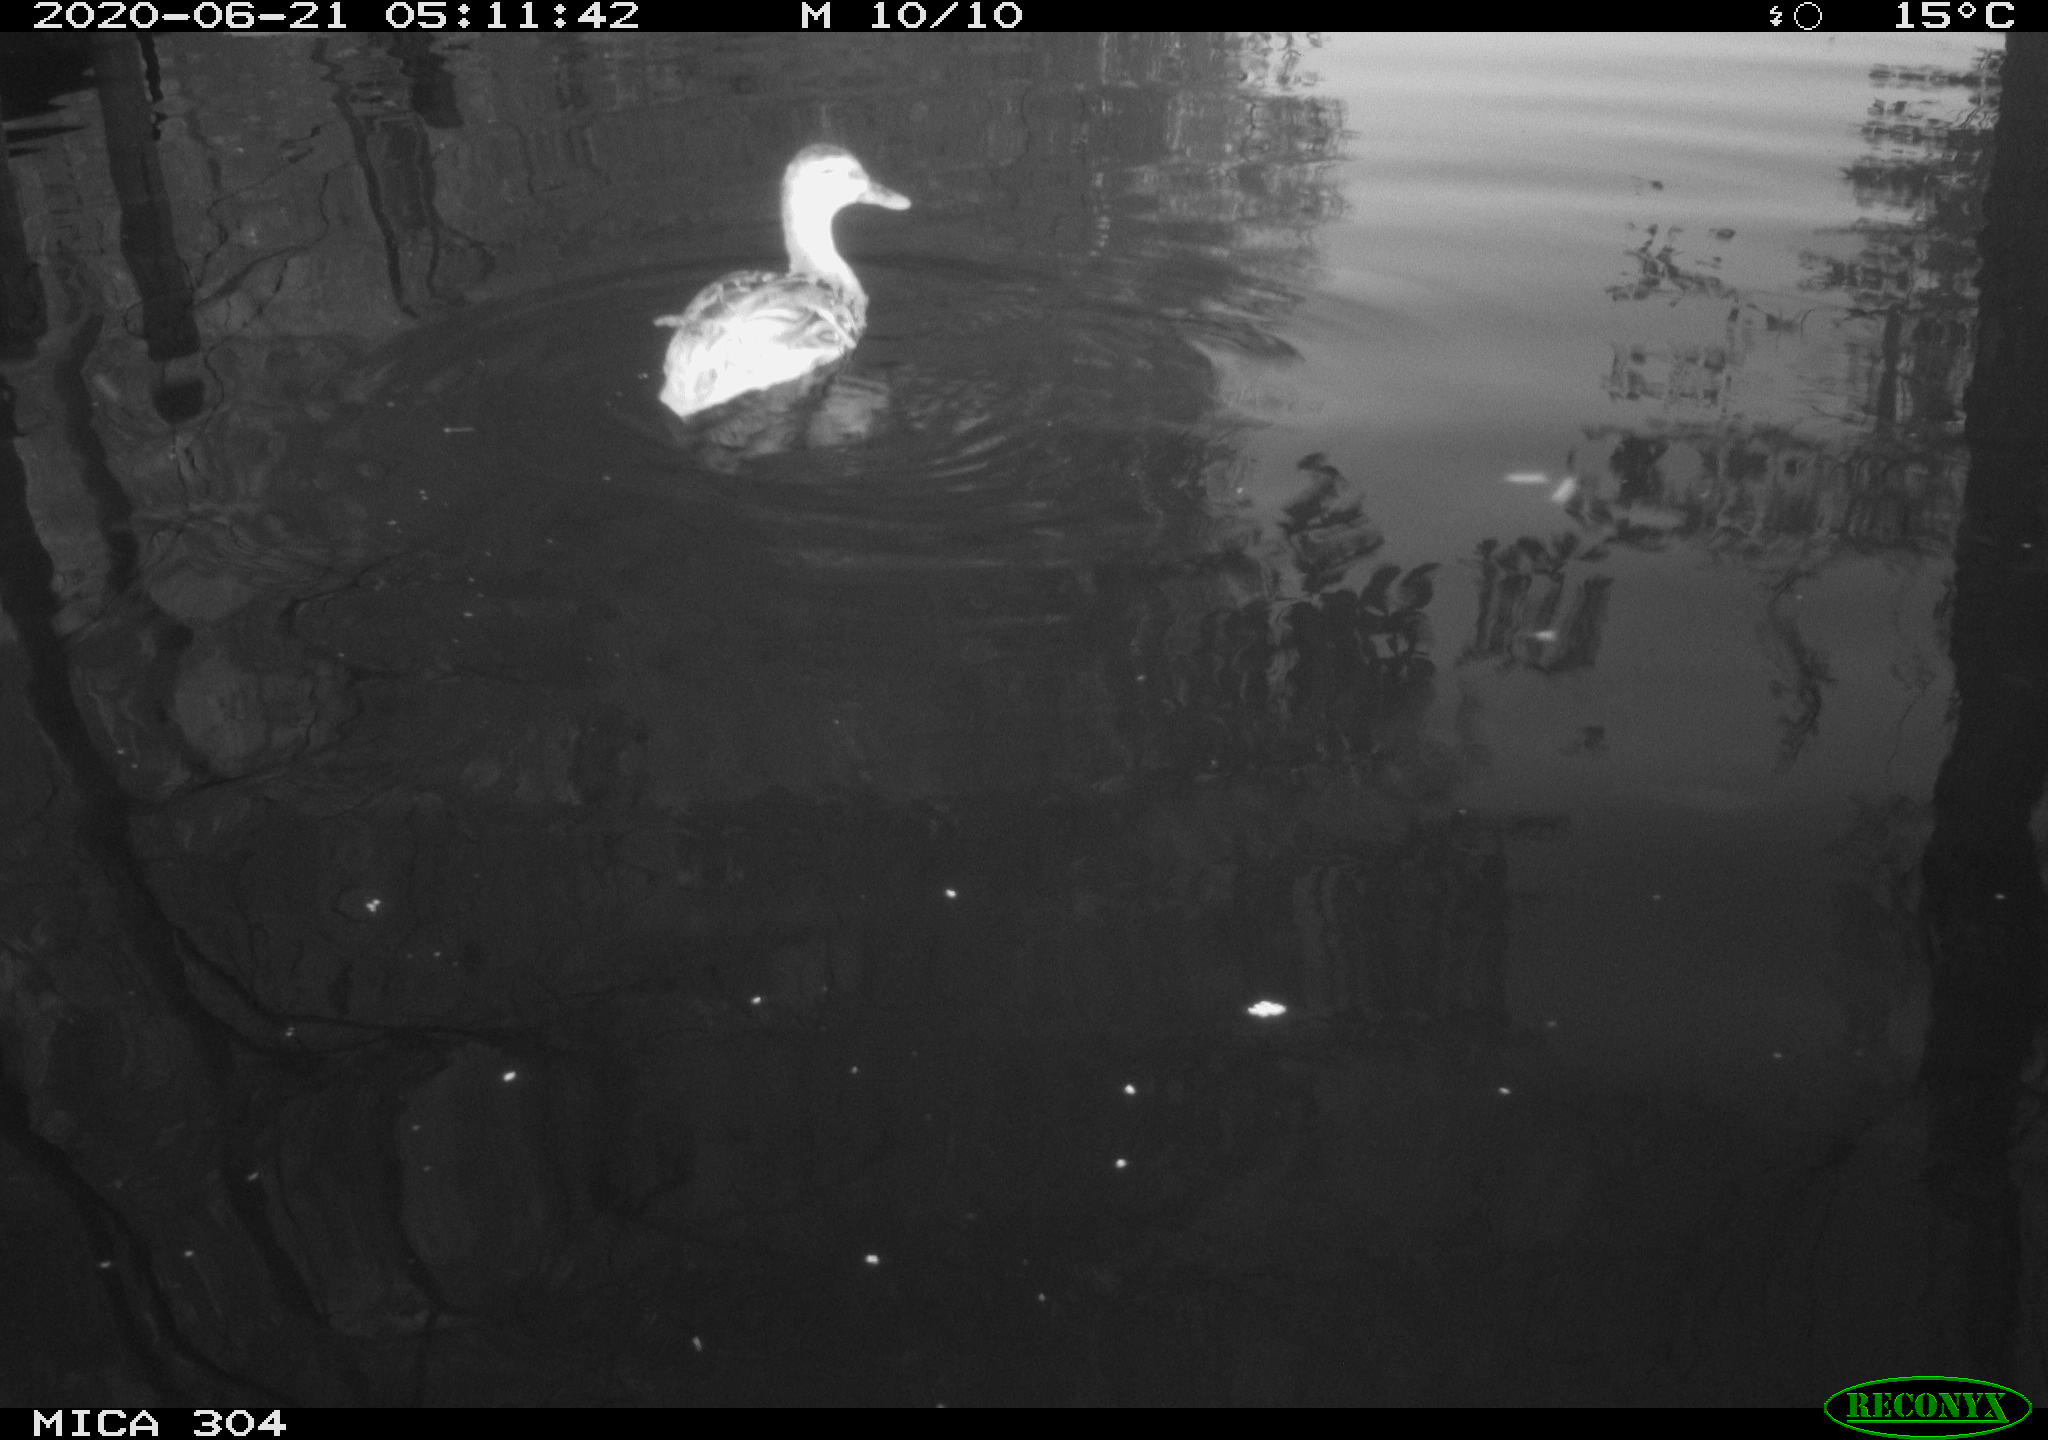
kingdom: Animalia
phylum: Chordata
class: Aves
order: Anseriformes
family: Anatidae
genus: Anas
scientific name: Anas platyrhynchos
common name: Mallard
